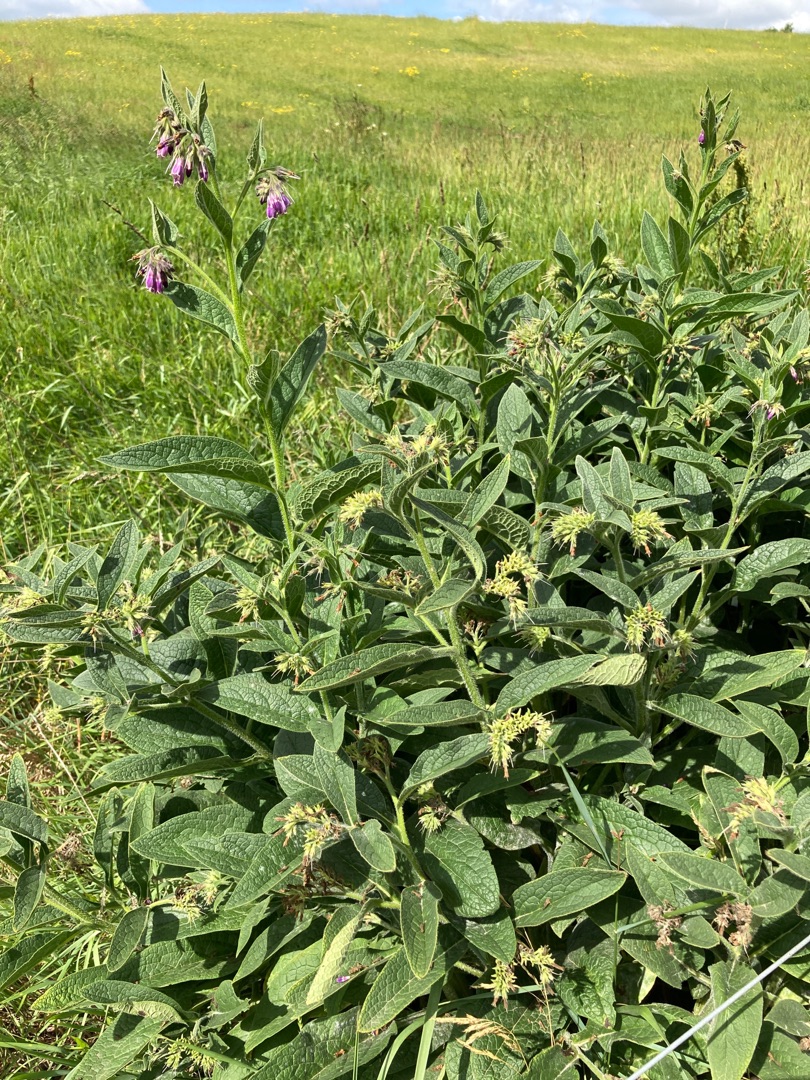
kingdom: Plantae
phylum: Tracheophyta
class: Magnoliopsida
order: Boraginales
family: Boraginaceae
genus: Symphytum
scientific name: Symphytum uplandicum
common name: Foder-kulsukker
